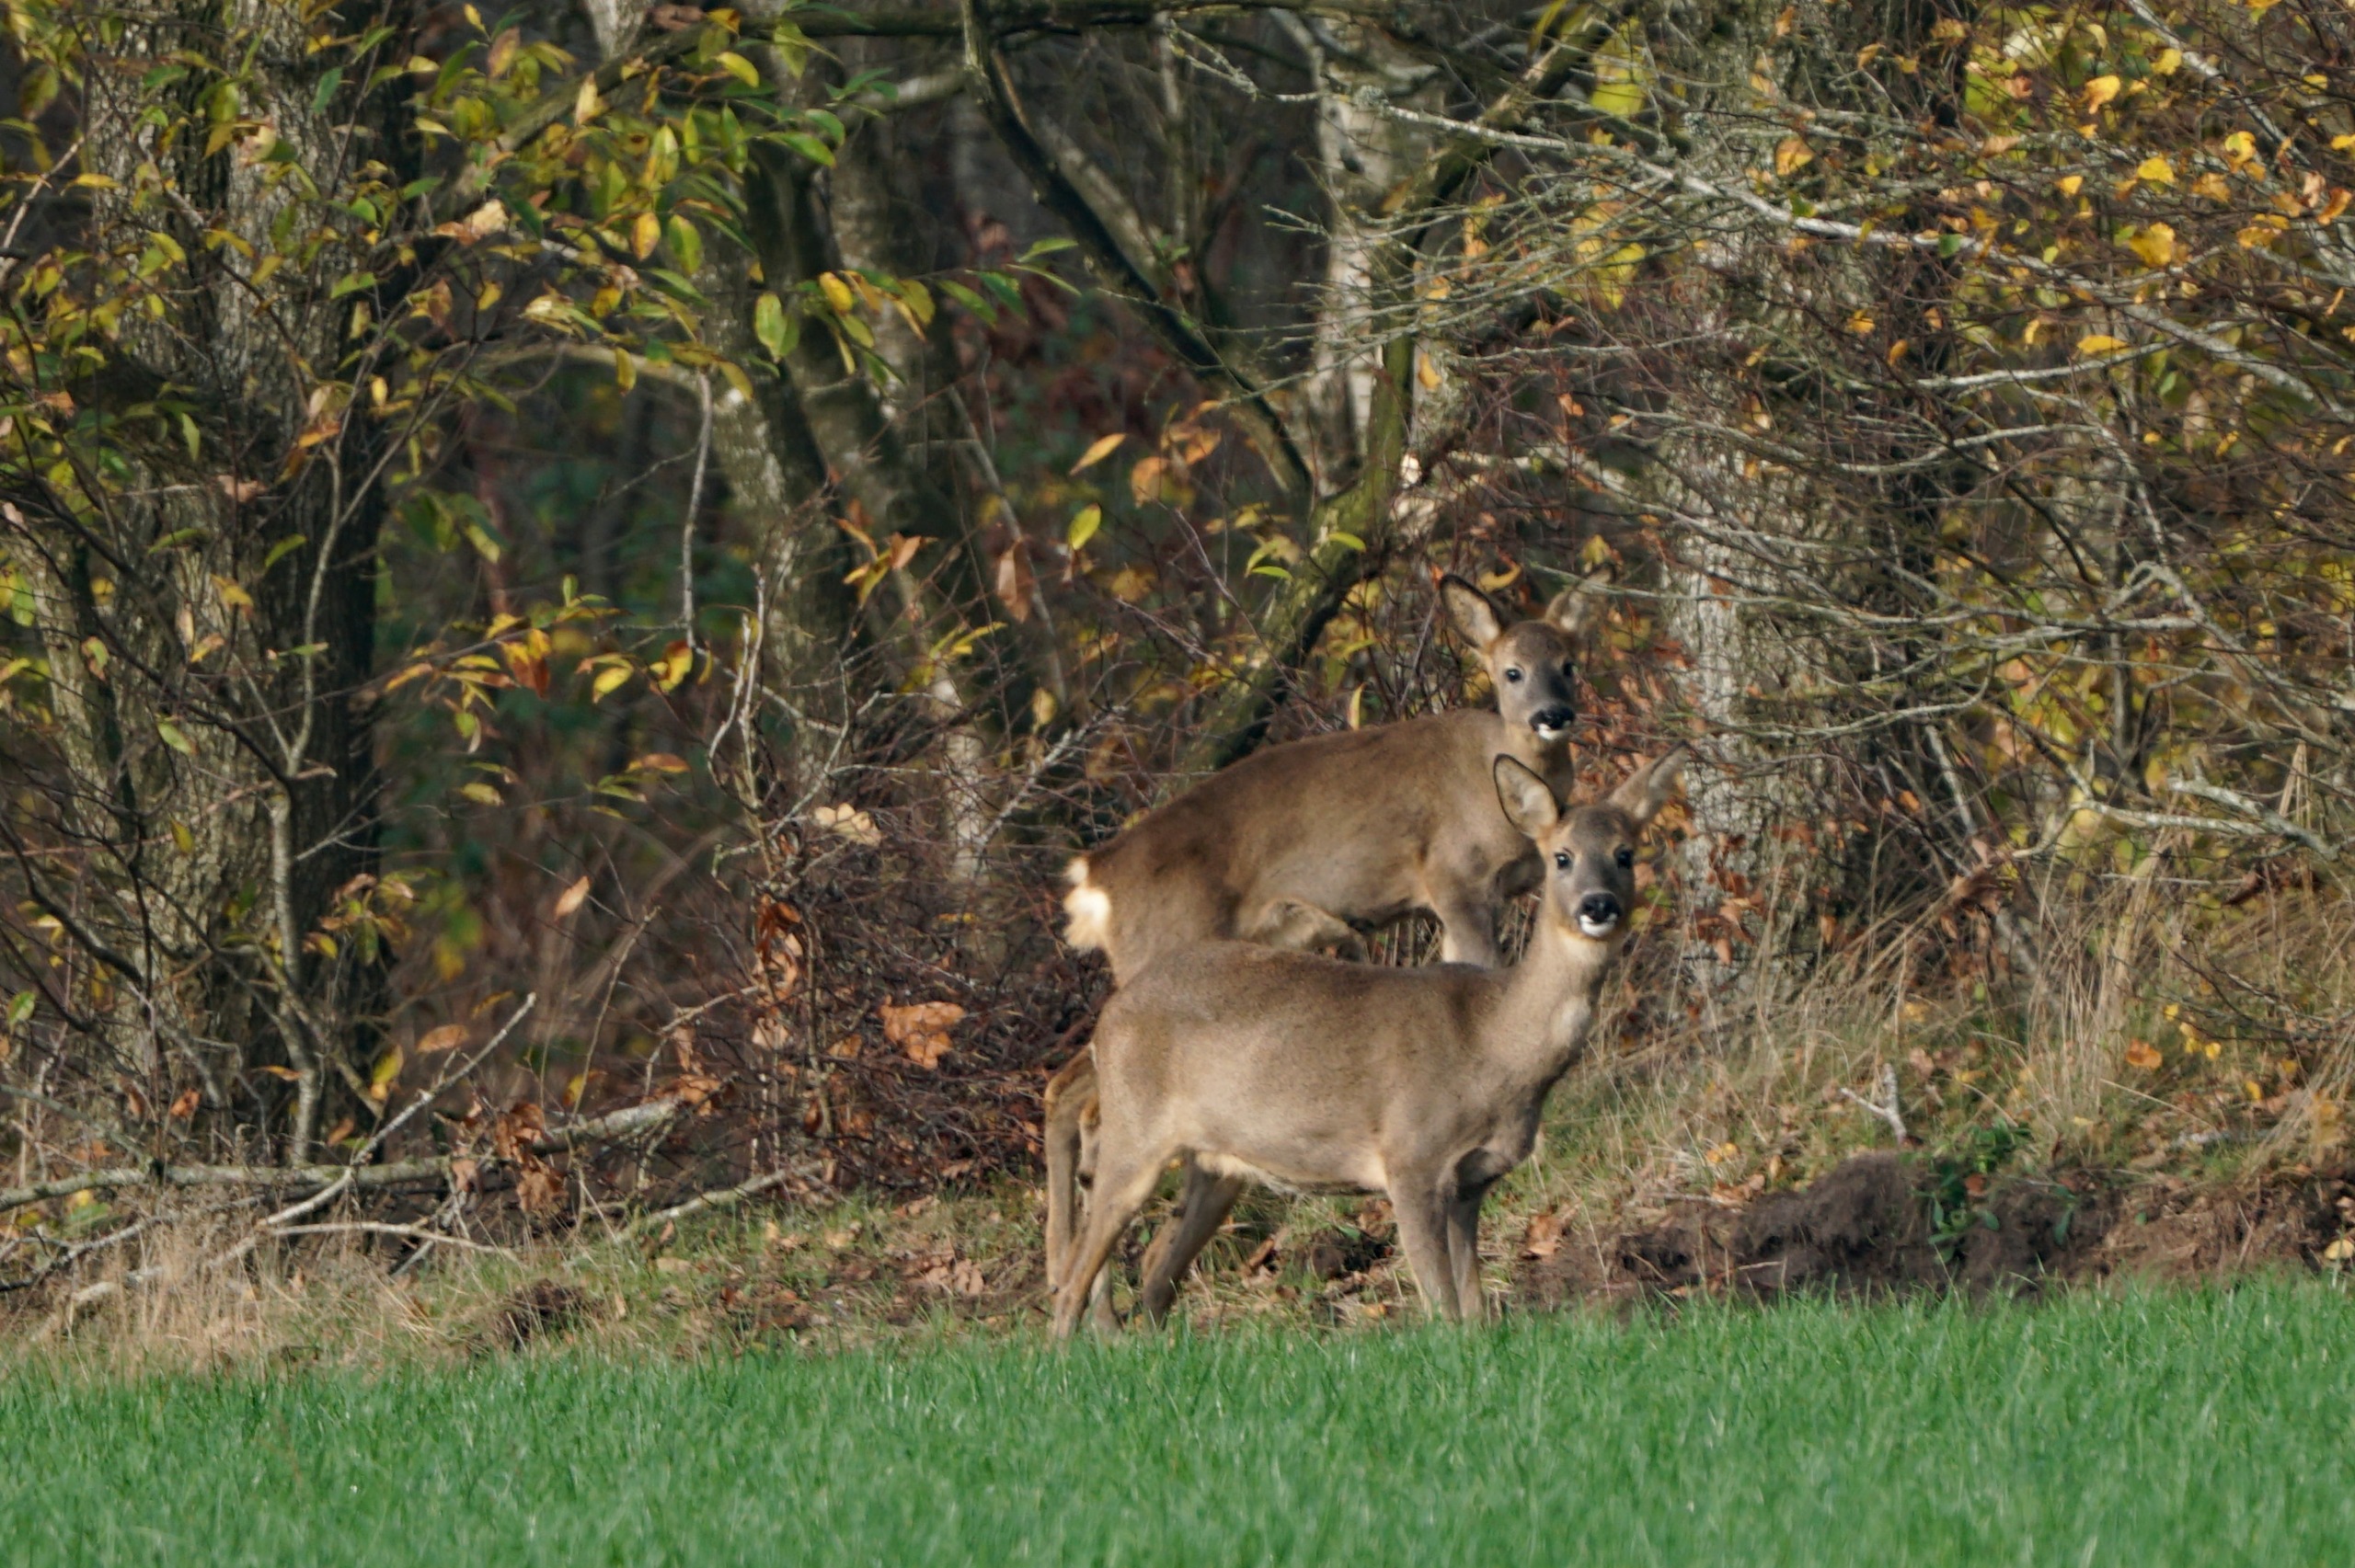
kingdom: Animalia
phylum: Chordata
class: Mammalia
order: Artiodactyla
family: Cervidae
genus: Capreolus
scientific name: Capreolus capreolus
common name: Rådyr
